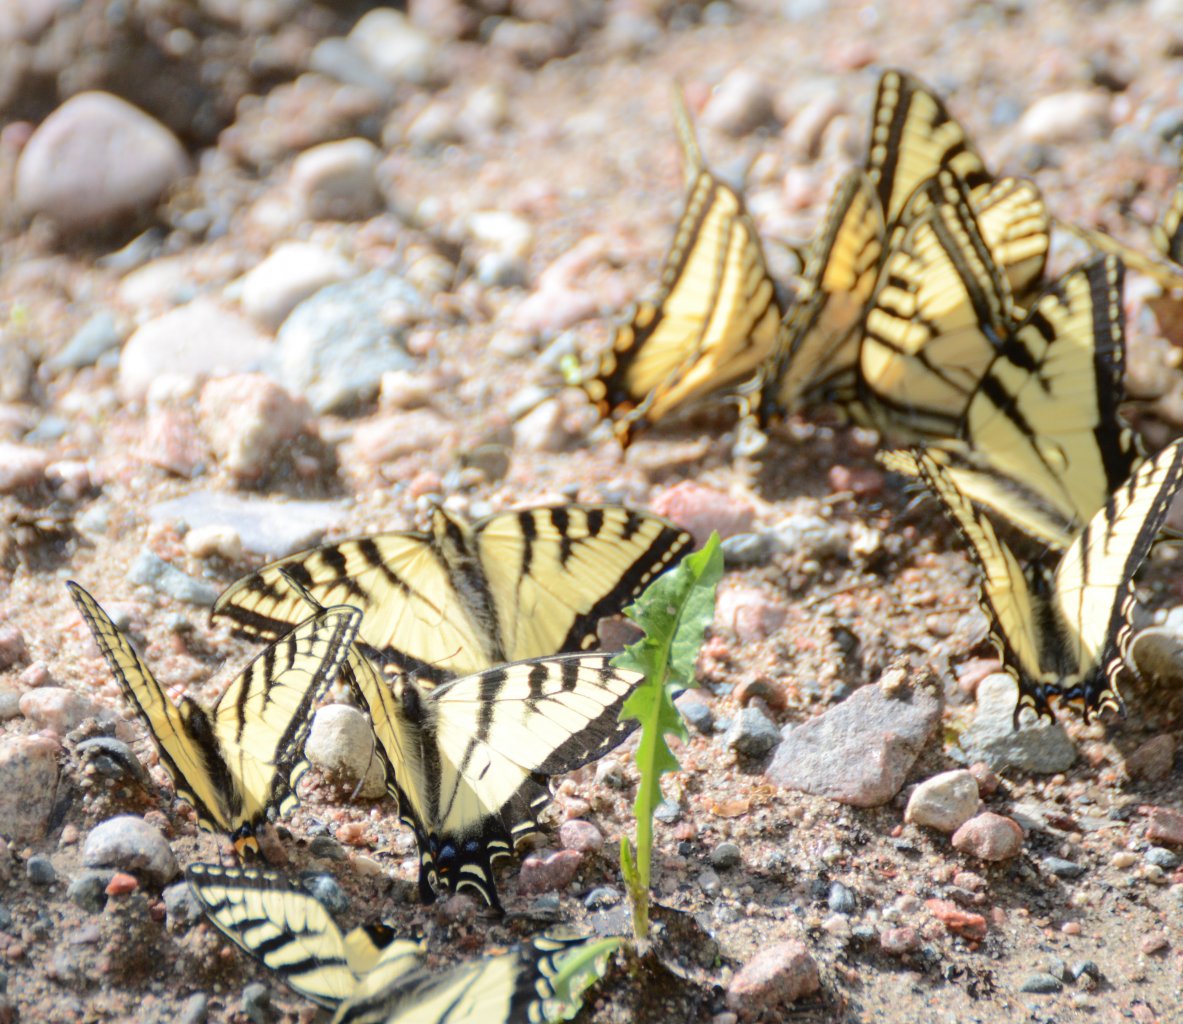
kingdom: Animalia
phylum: Arthropoda
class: Insecta
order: Lepidoptera
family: Papilionidae
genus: Pterourus
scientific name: Pterourus canadensis
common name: Canadian Tiger Swallowtail
